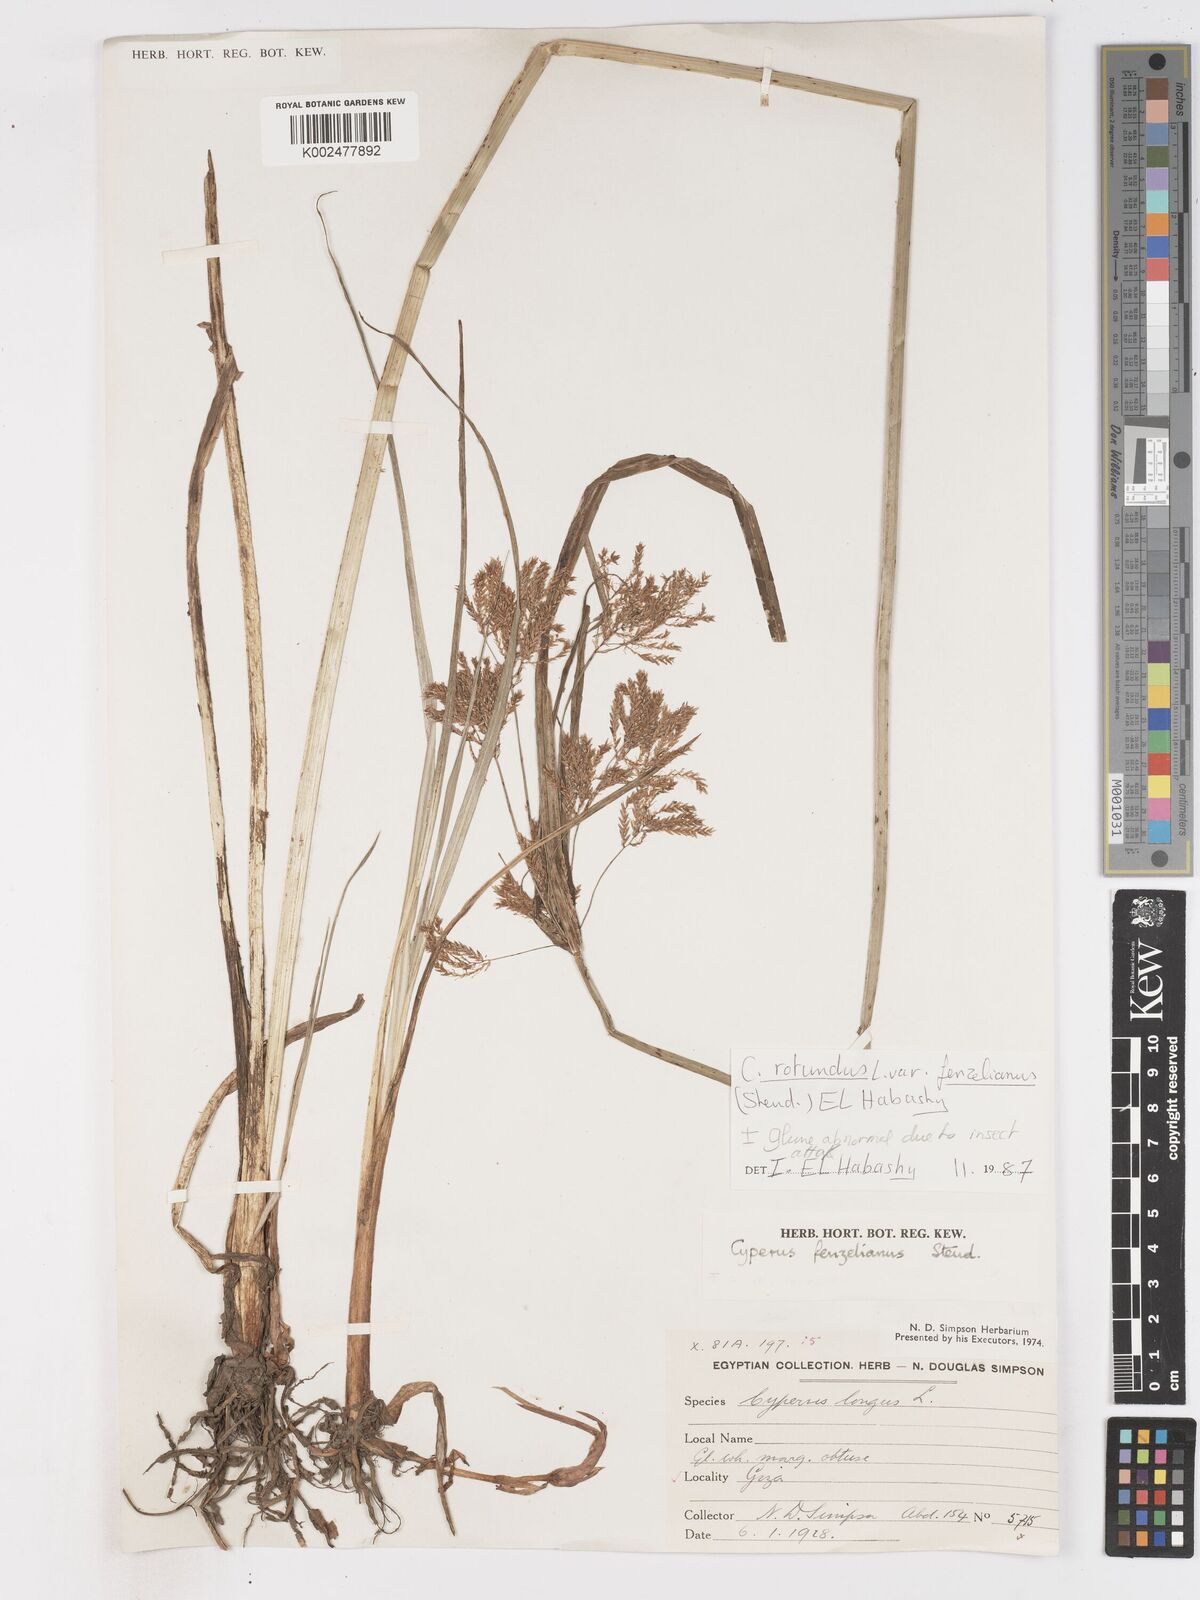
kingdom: Plantae
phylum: Tracheophyta
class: Liliopsida
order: Poales
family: Cyperaceae
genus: Cyperus
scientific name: Cyperus longus
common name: Galingale
